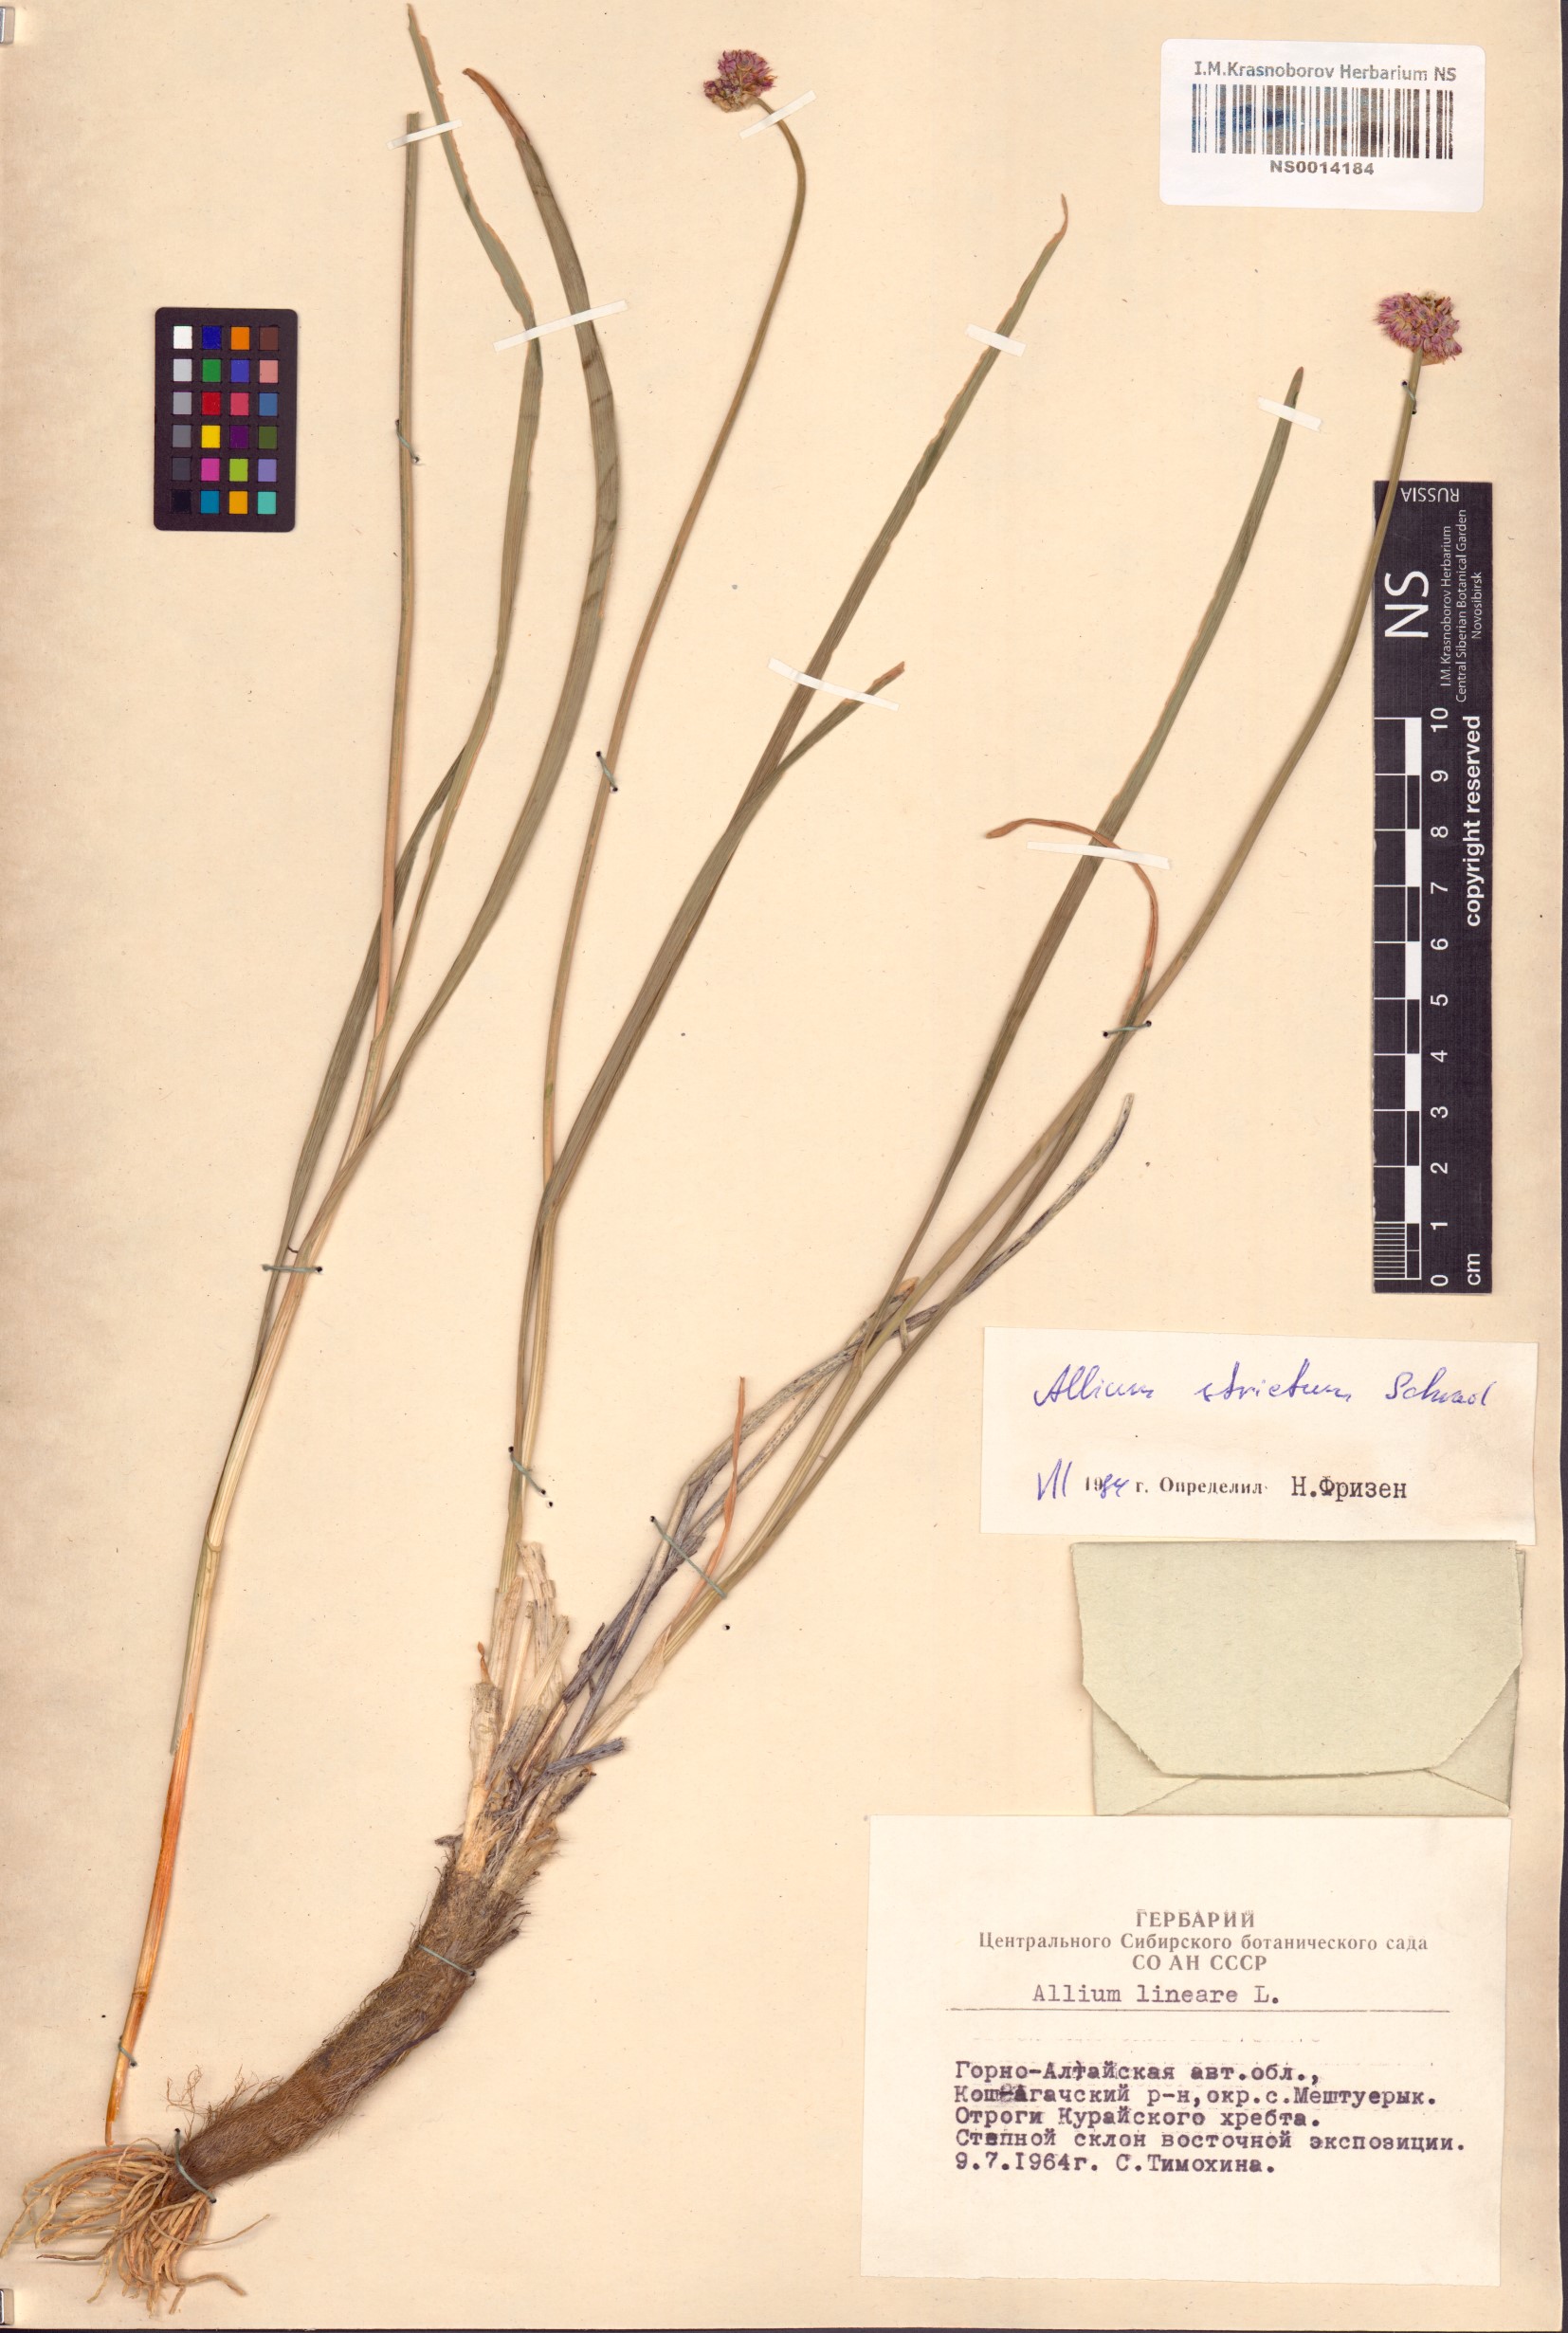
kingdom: Plantae
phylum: Tracheophyta
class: Liliopsida
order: Asparagales
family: Amaryllidaceae
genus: Allium
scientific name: Allium strictum
